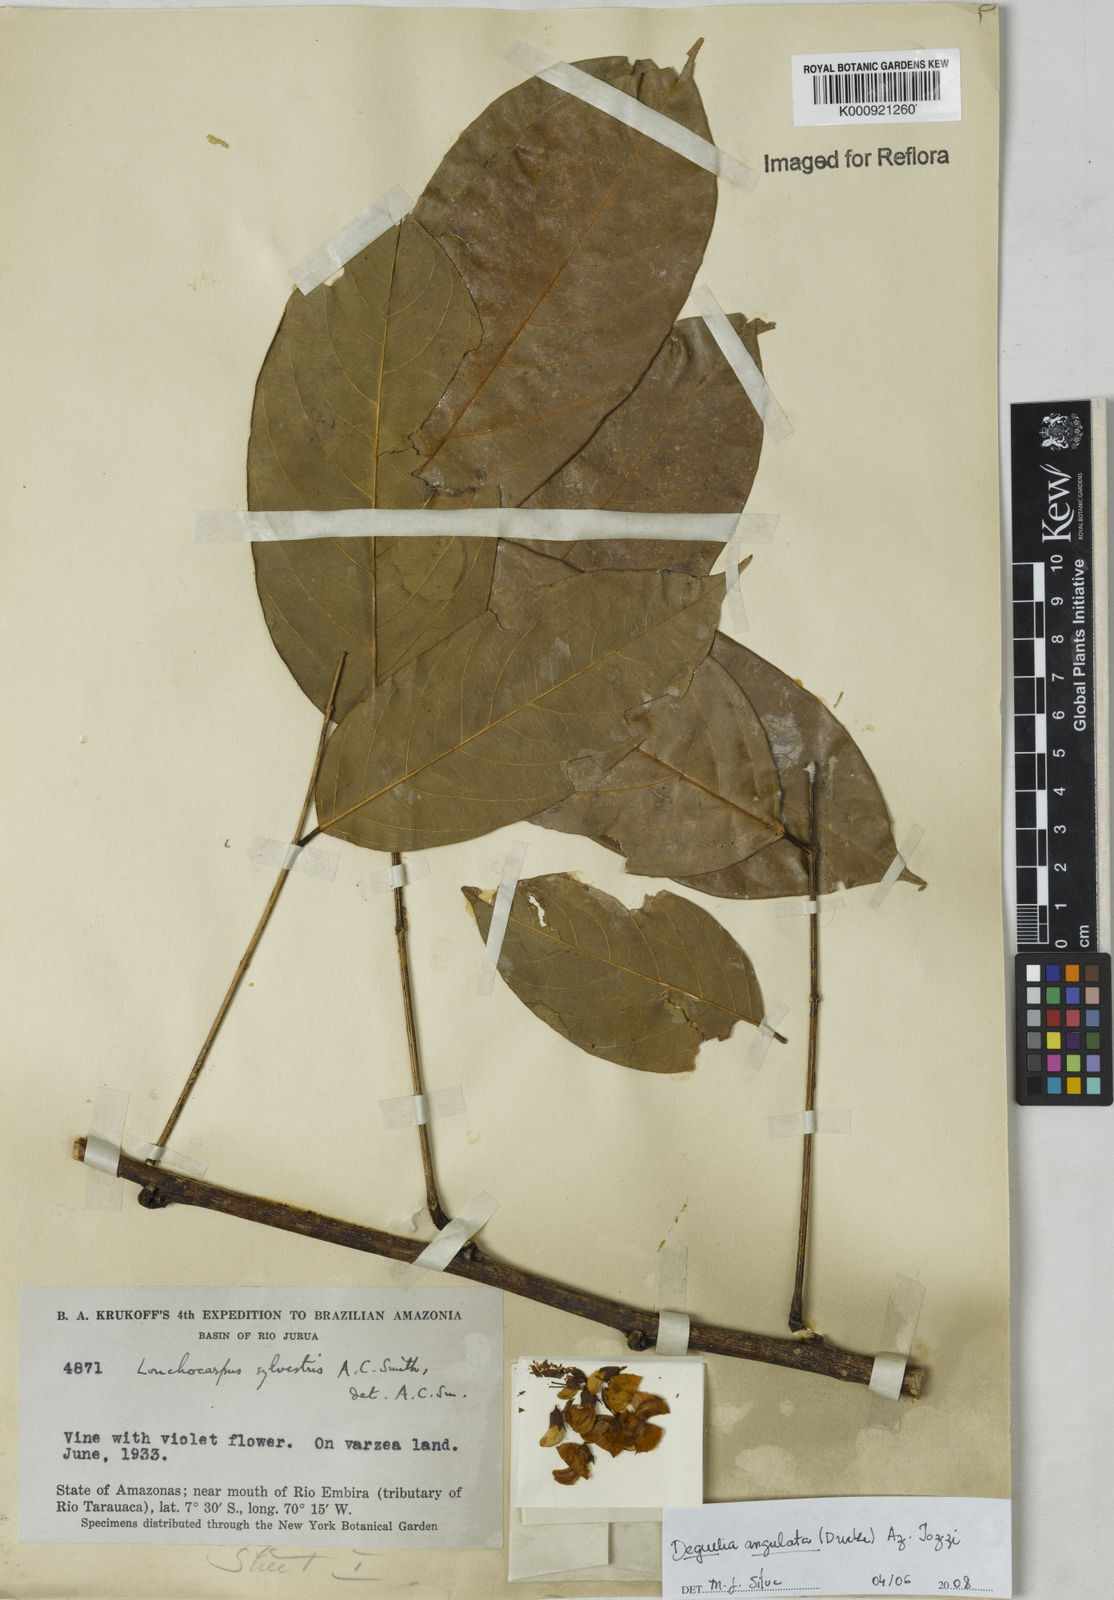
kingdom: Plantae
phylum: Tracheophyta
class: Magnoliopsida
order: Fabales
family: Fabaceae
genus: Deguelia
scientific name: Deguelia angulata
